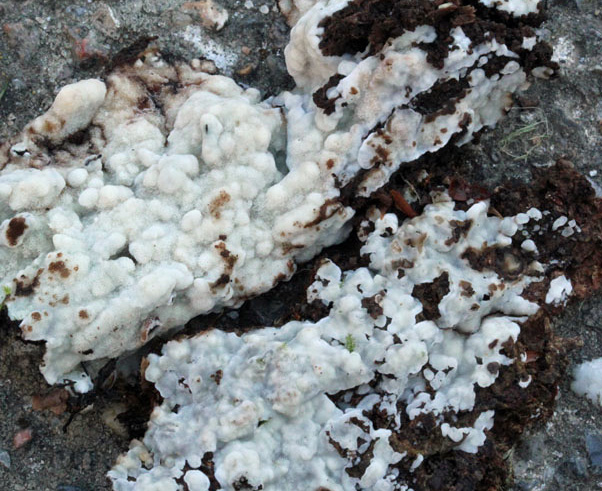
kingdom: Fungi
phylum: Basidiomycota
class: Agaricomycetes
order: Polyporales
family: Meripilaceae
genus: Rigidoporus
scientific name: Rigidoporus sanguinolentus
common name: blod-skorpeporesvamp
